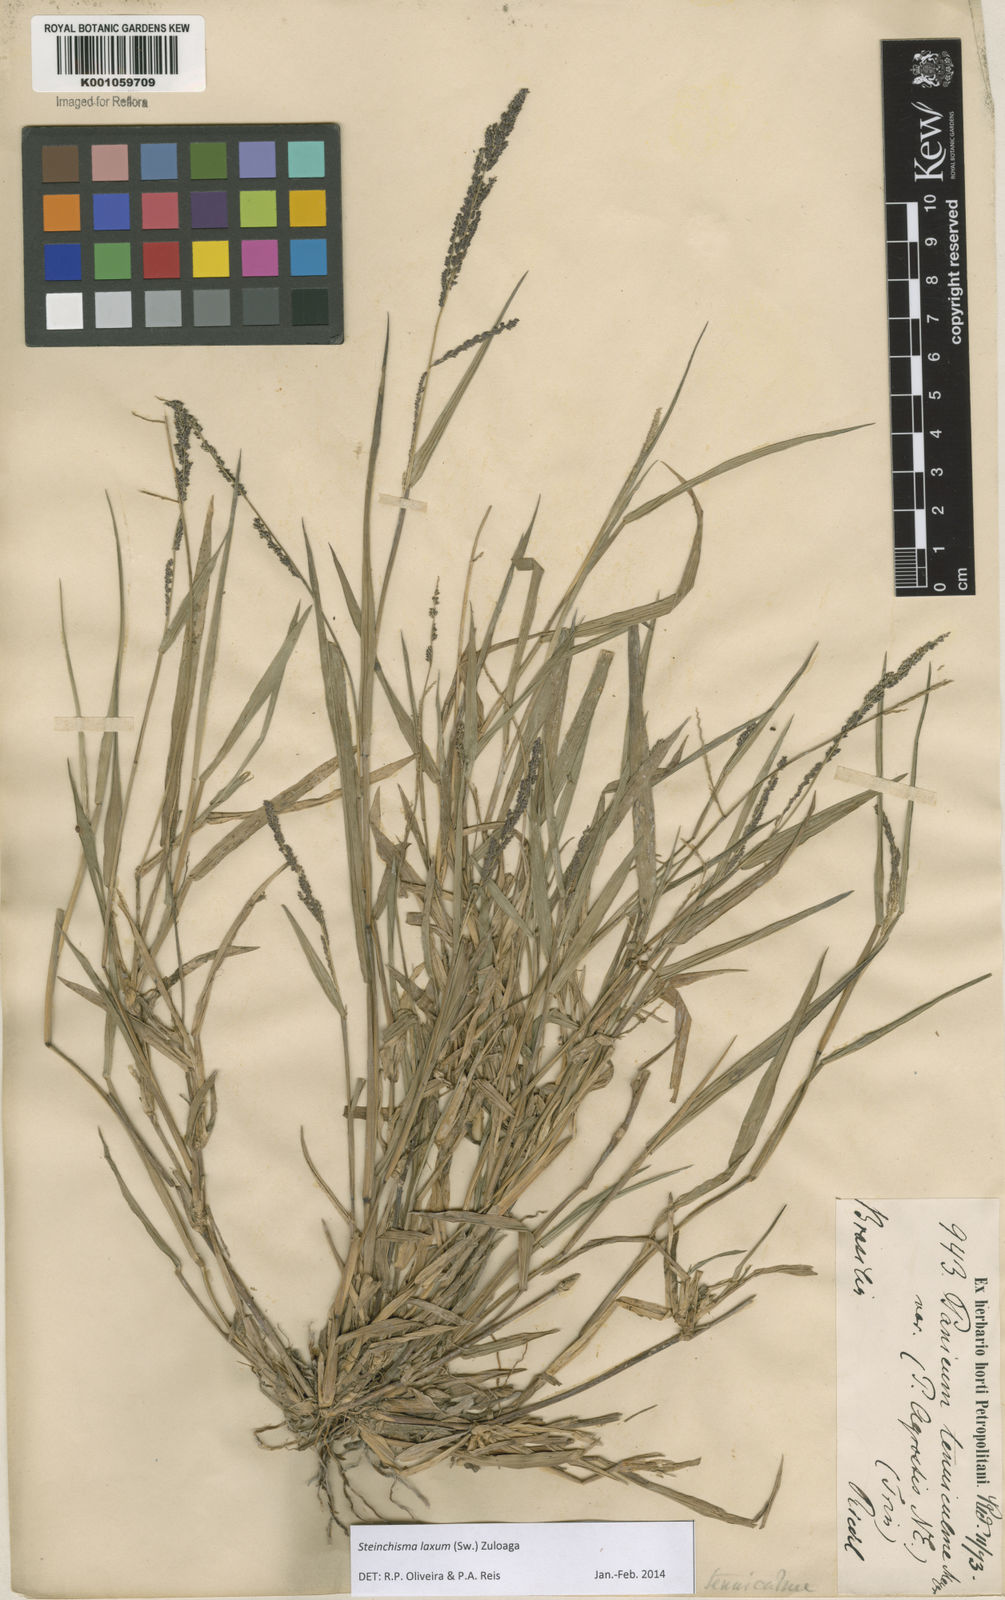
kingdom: Plantae
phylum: Tracheophyta
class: Liliopsida
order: Poales
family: Poaceae
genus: Steinchisma
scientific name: Steinchisma laxum
